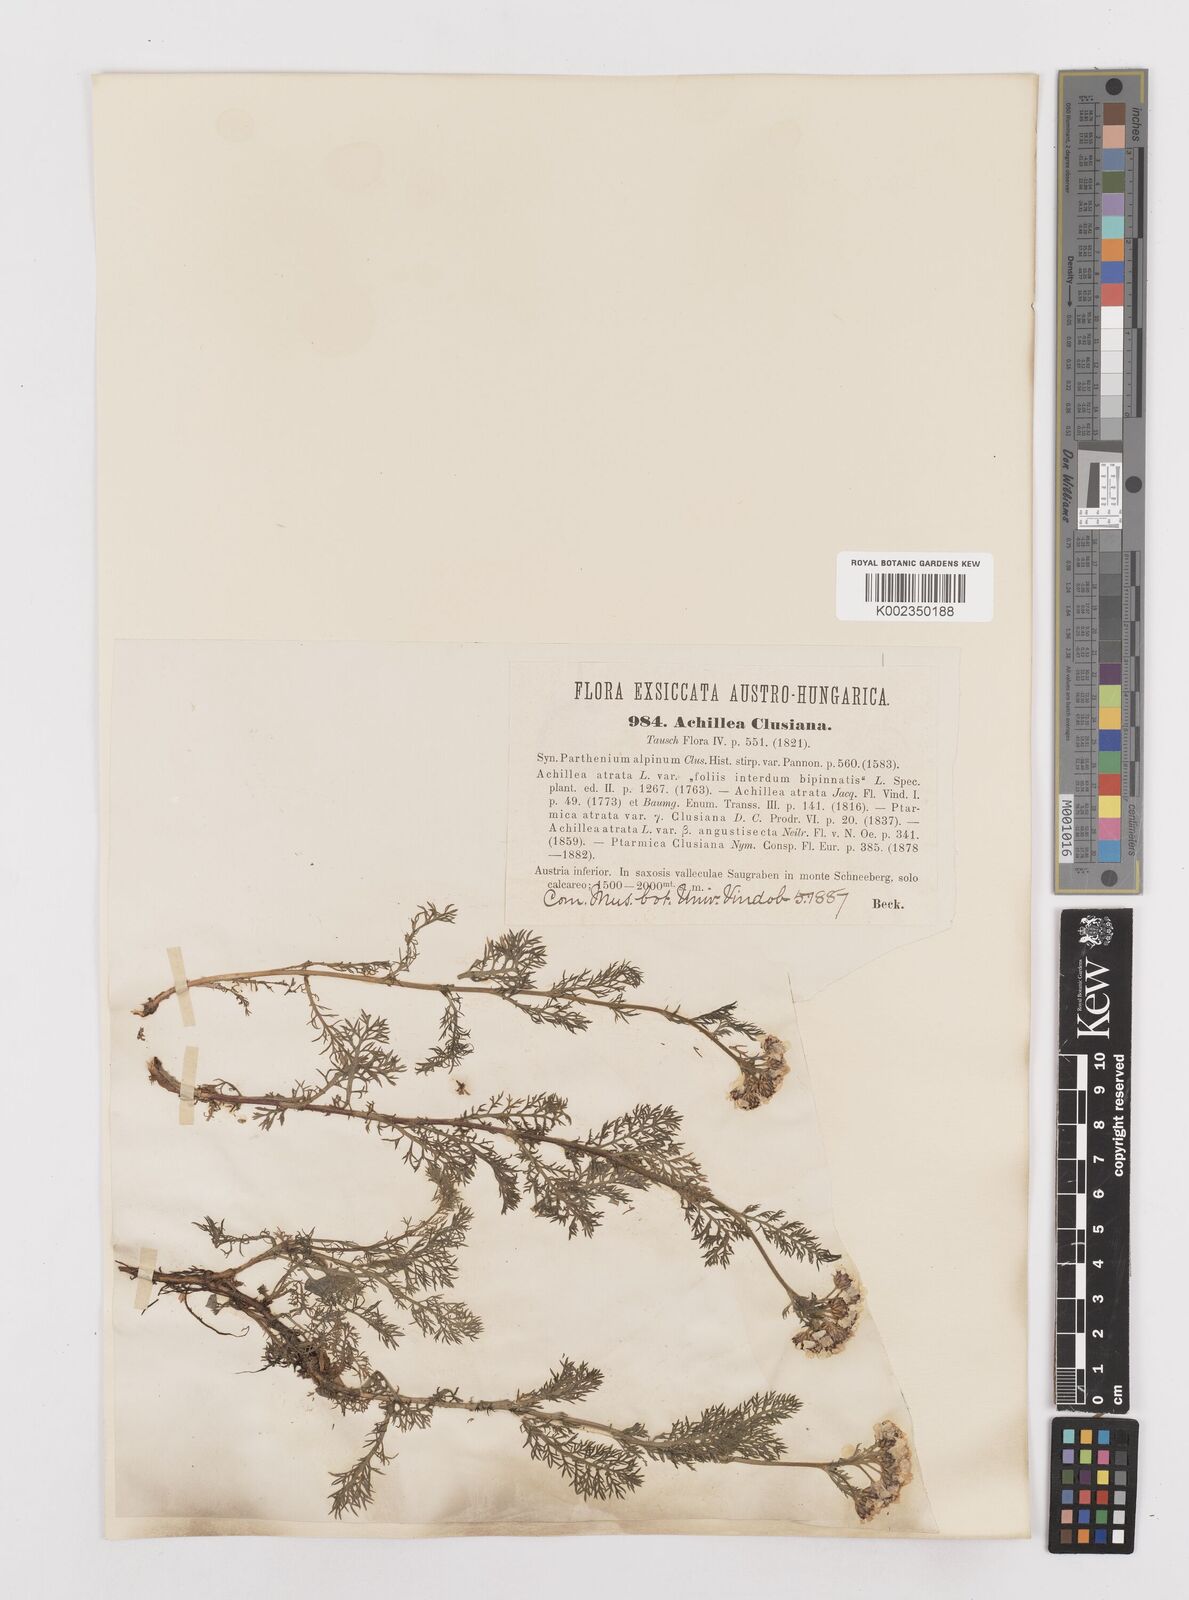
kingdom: Plantae
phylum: Tracheophyta
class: Magnoliopsida
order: Asterales
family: Asteraceae
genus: Achillea
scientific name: Achillea clusiana
